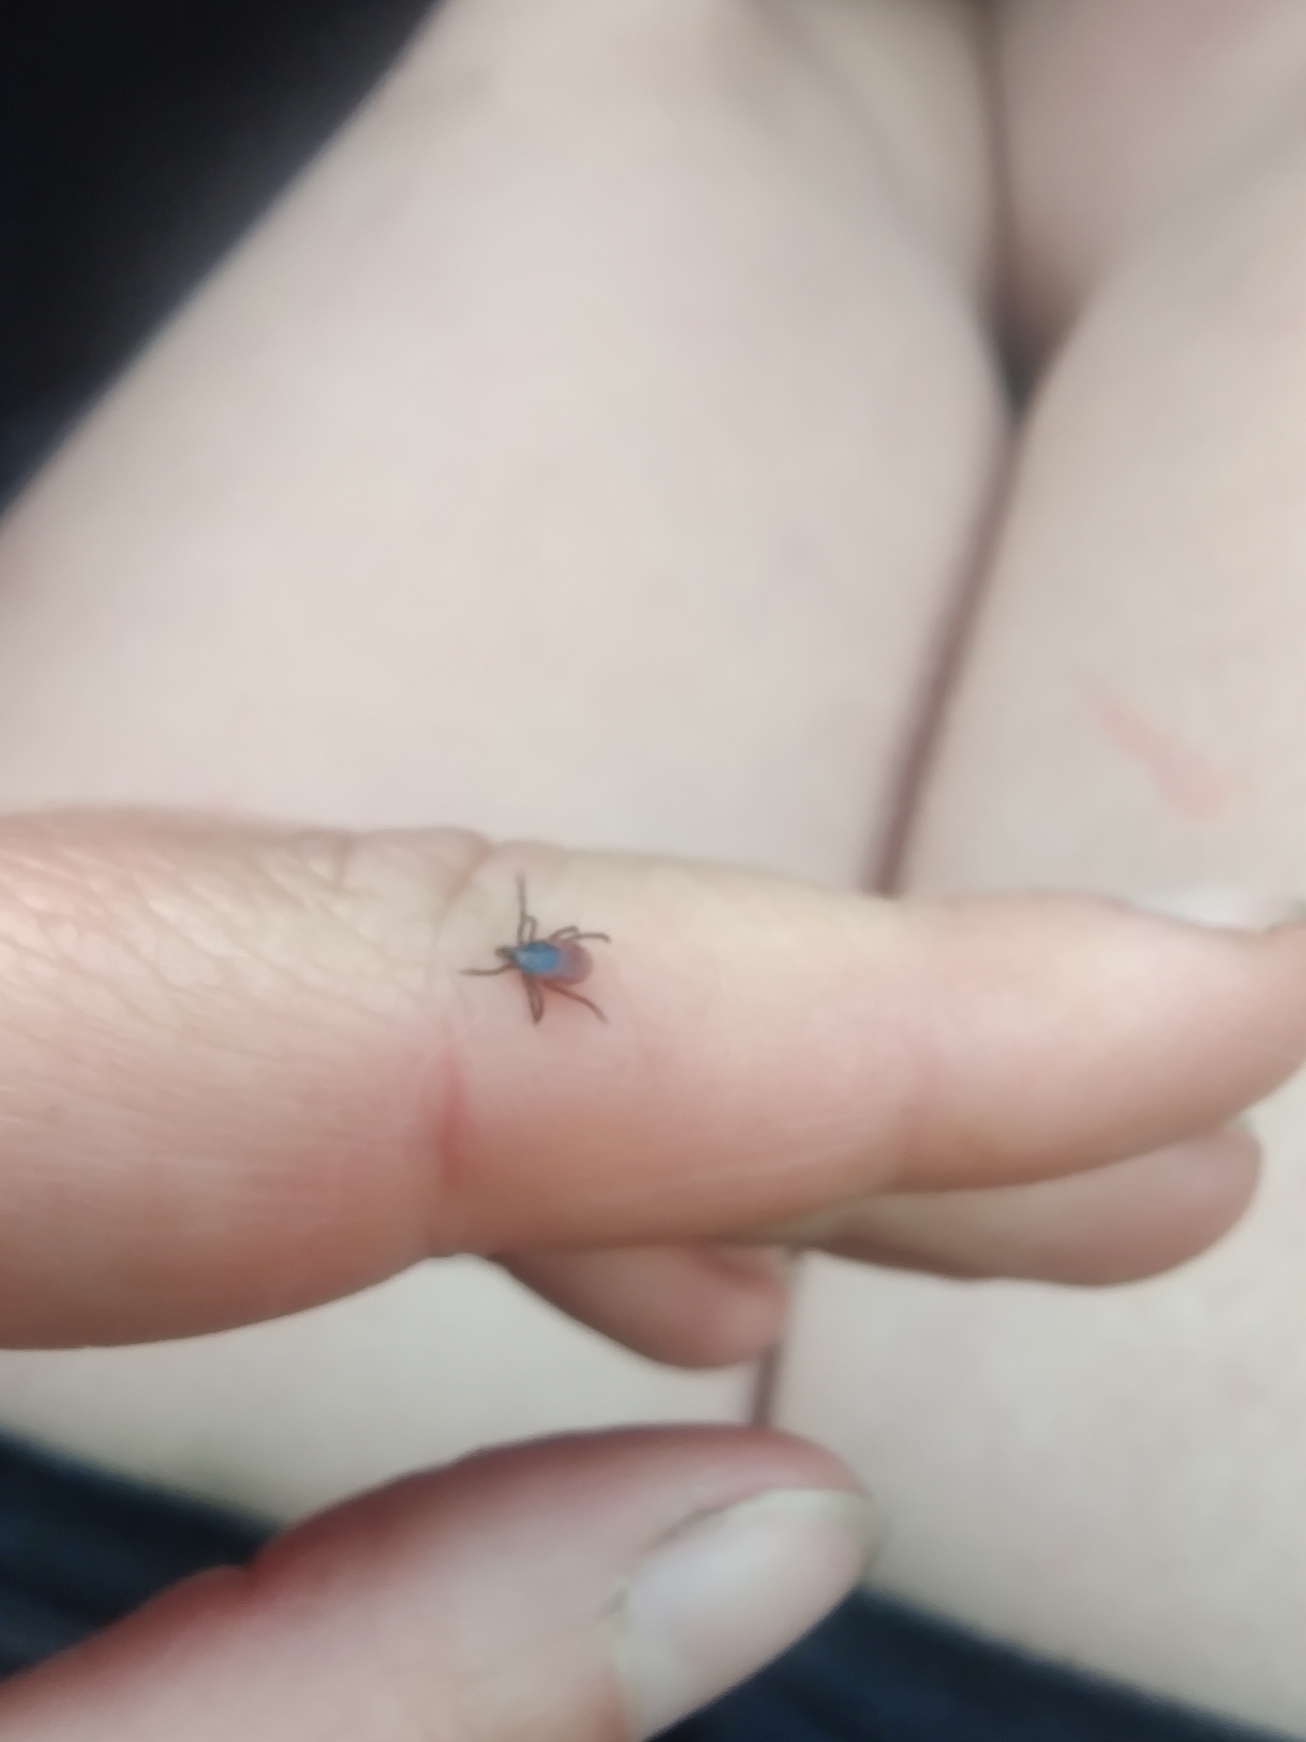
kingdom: Animalia
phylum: Arthropoda
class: Arachnida
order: Ixodida
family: Ixodidae
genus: Ixodes
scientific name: Ixodes ricinus
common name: Skovflåt
